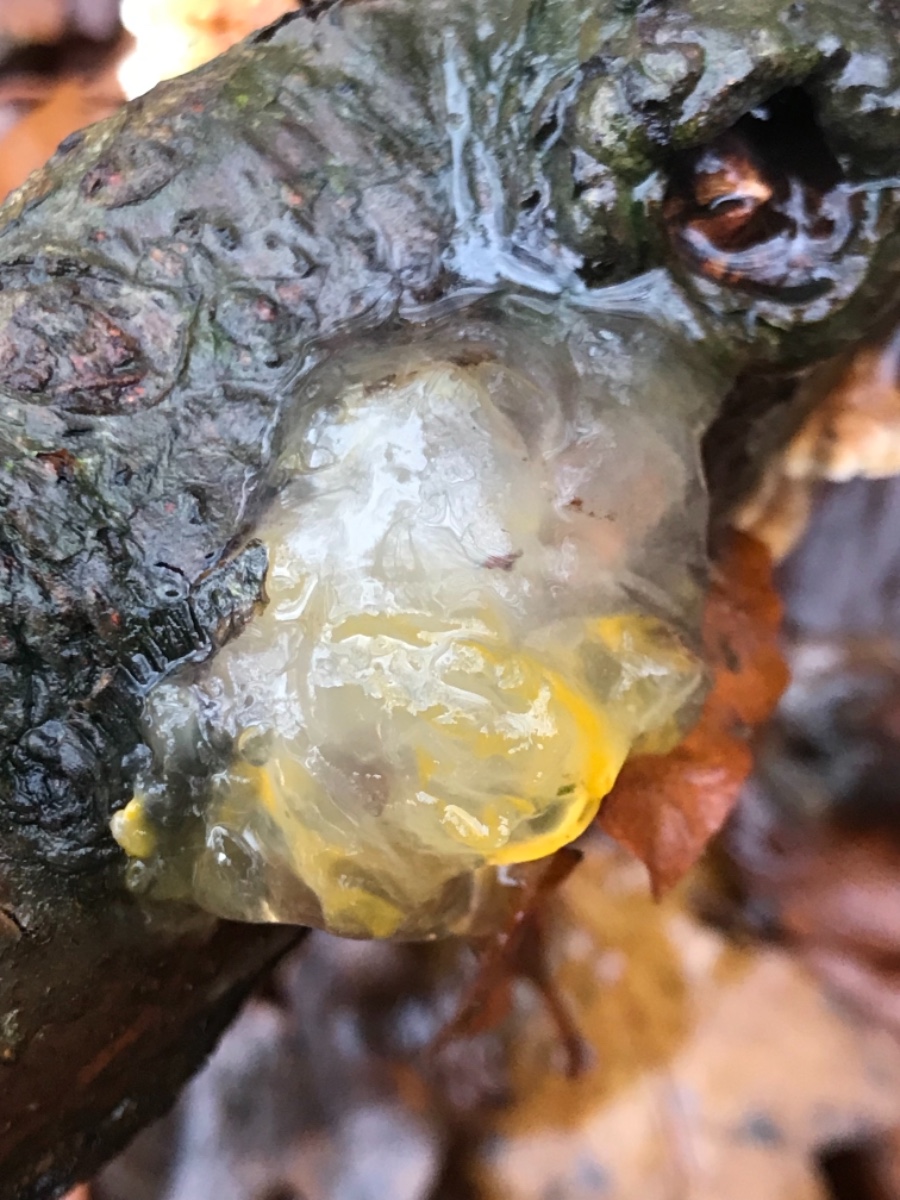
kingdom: Fungi
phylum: Basidiomycota
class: Tremellomycetes
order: Tremellales
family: Tremellaceae
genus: Tremella
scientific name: Tremella mesenterica
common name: gul bævresvamp
